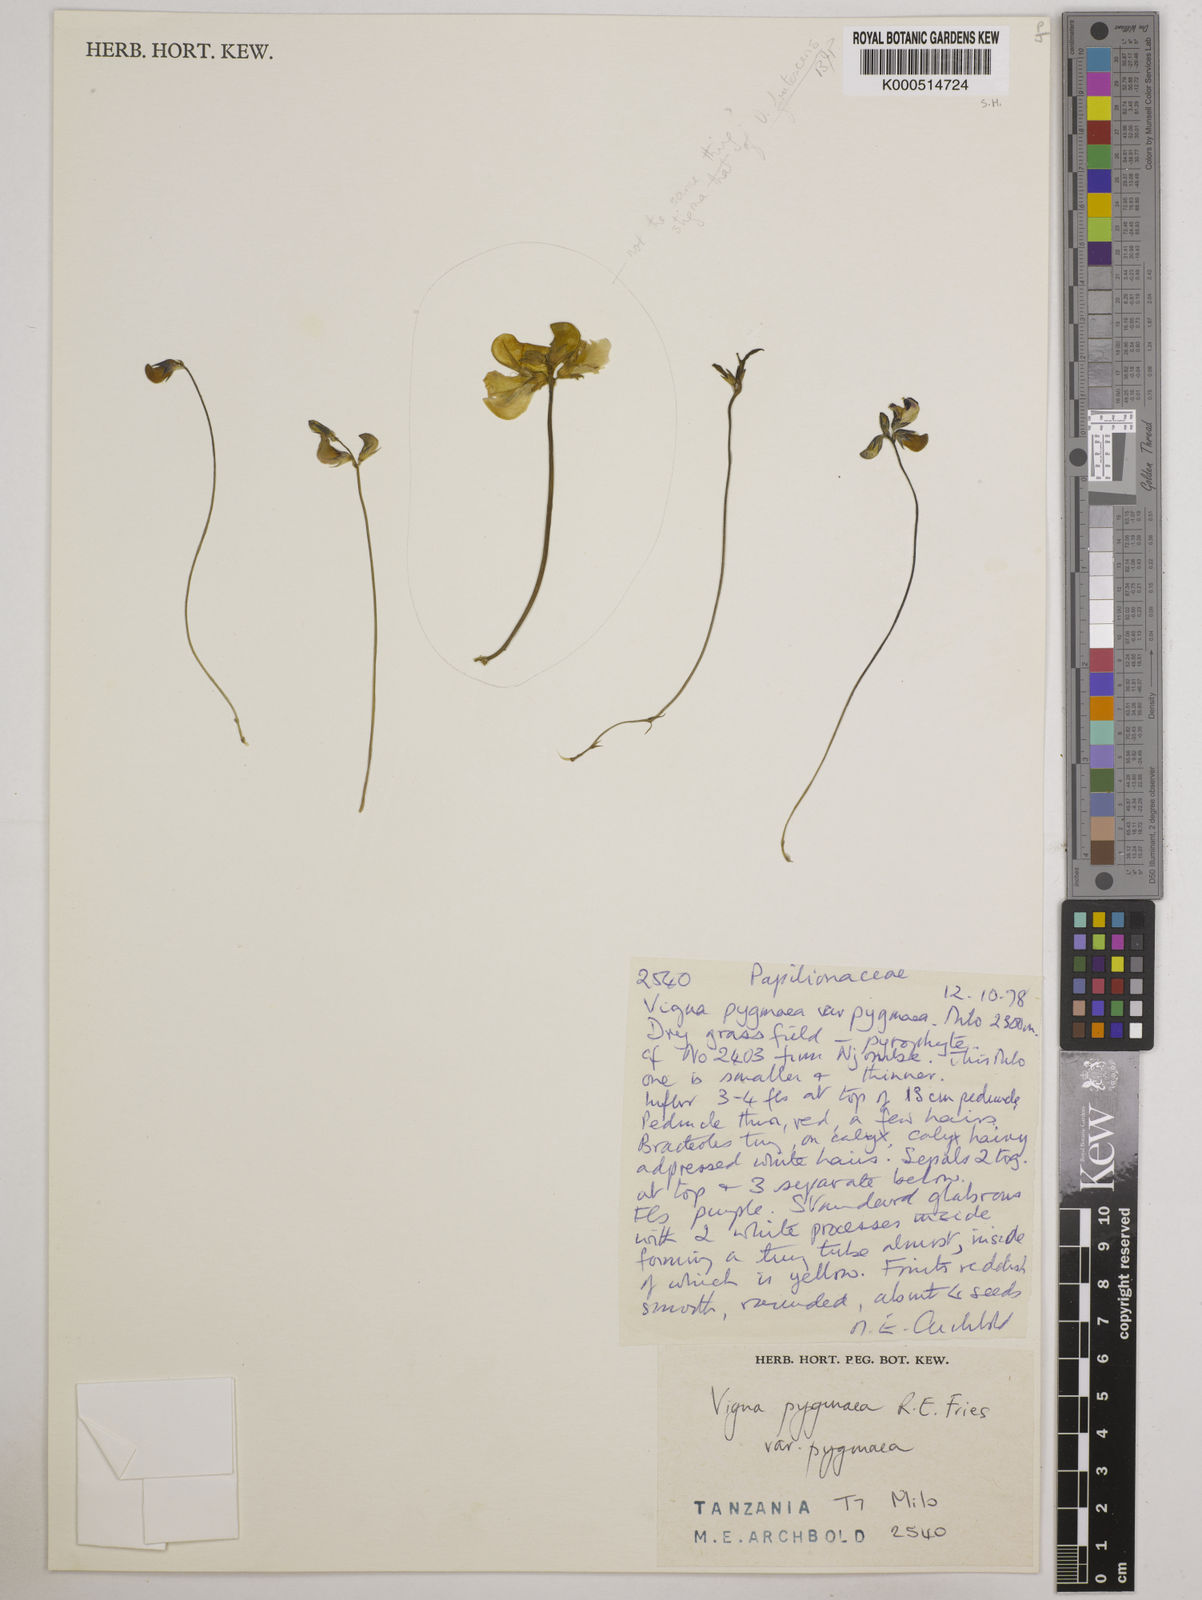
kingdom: Plantae
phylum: Tracheophyta
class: Magnoliopsida
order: Fabales
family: Fabaceae
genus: Vigna
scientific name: Vigna pygmaea
